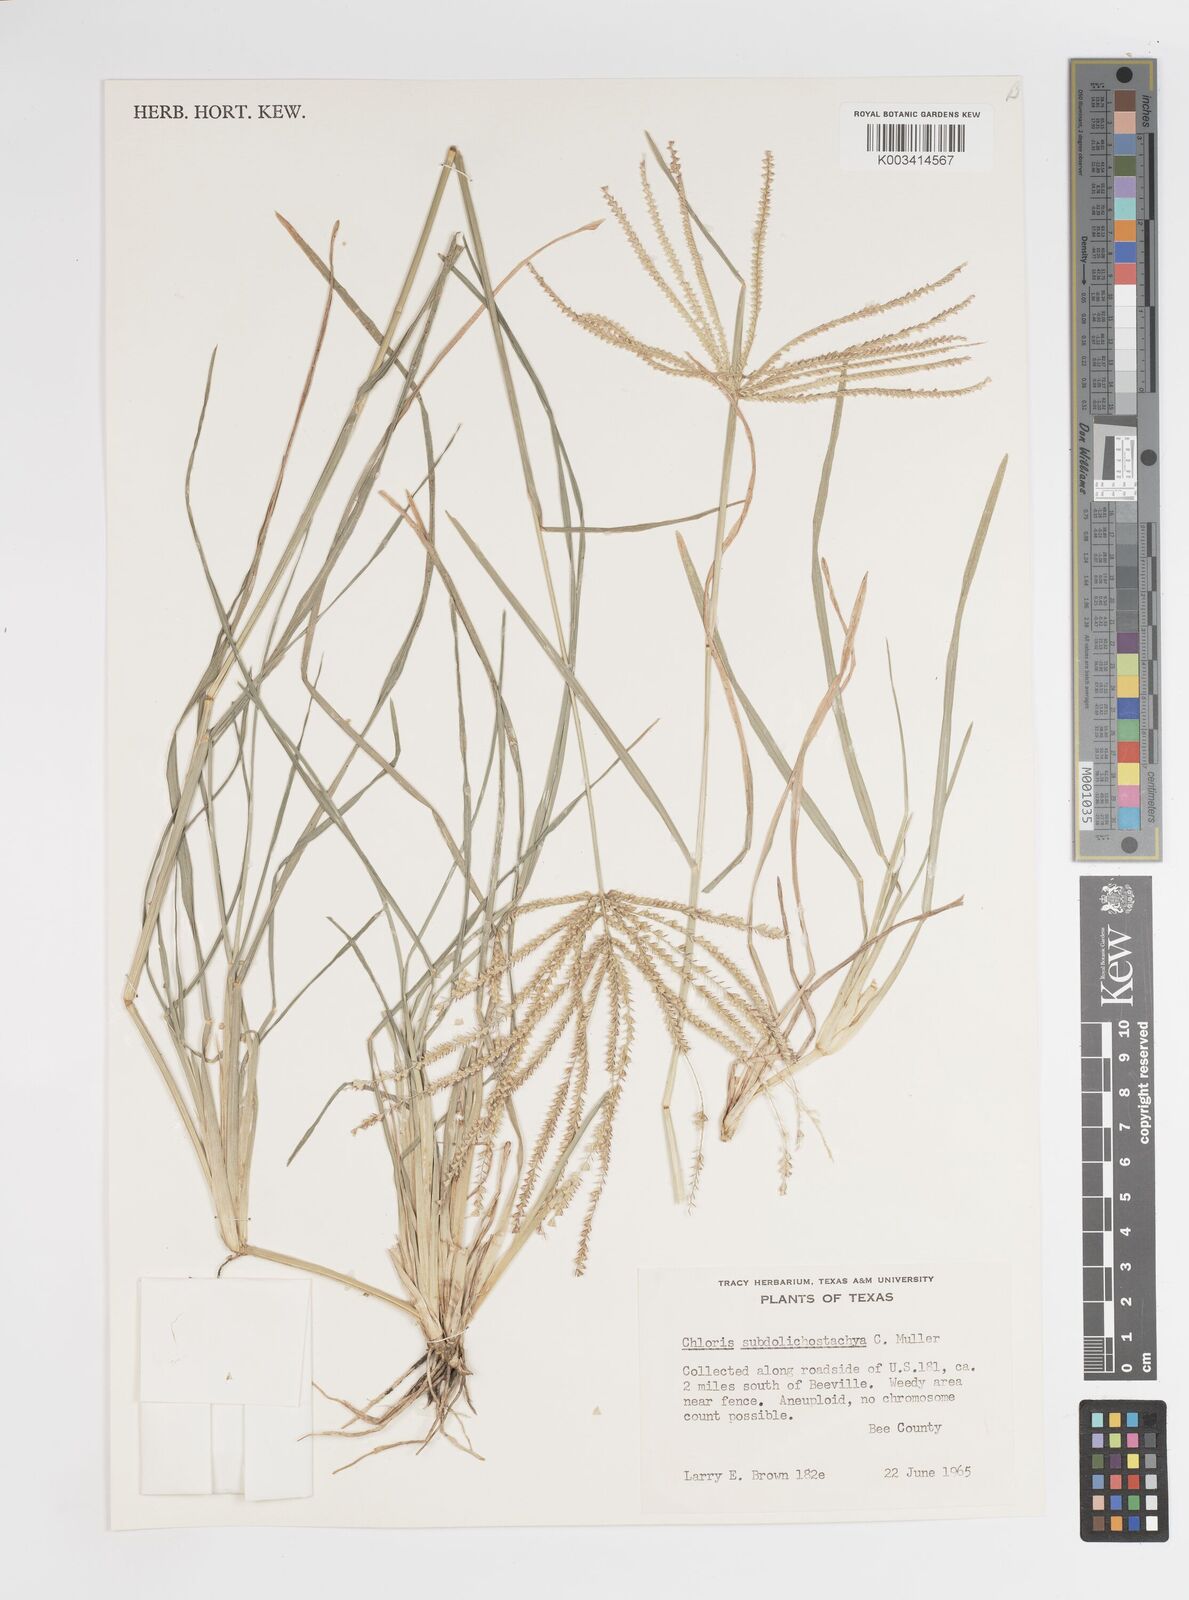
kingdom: Plantae
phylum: Tracheophyta
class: Liliopsida
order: Poales
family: Poaceae
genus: Chloris
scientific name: Chloris subdolichostachya
